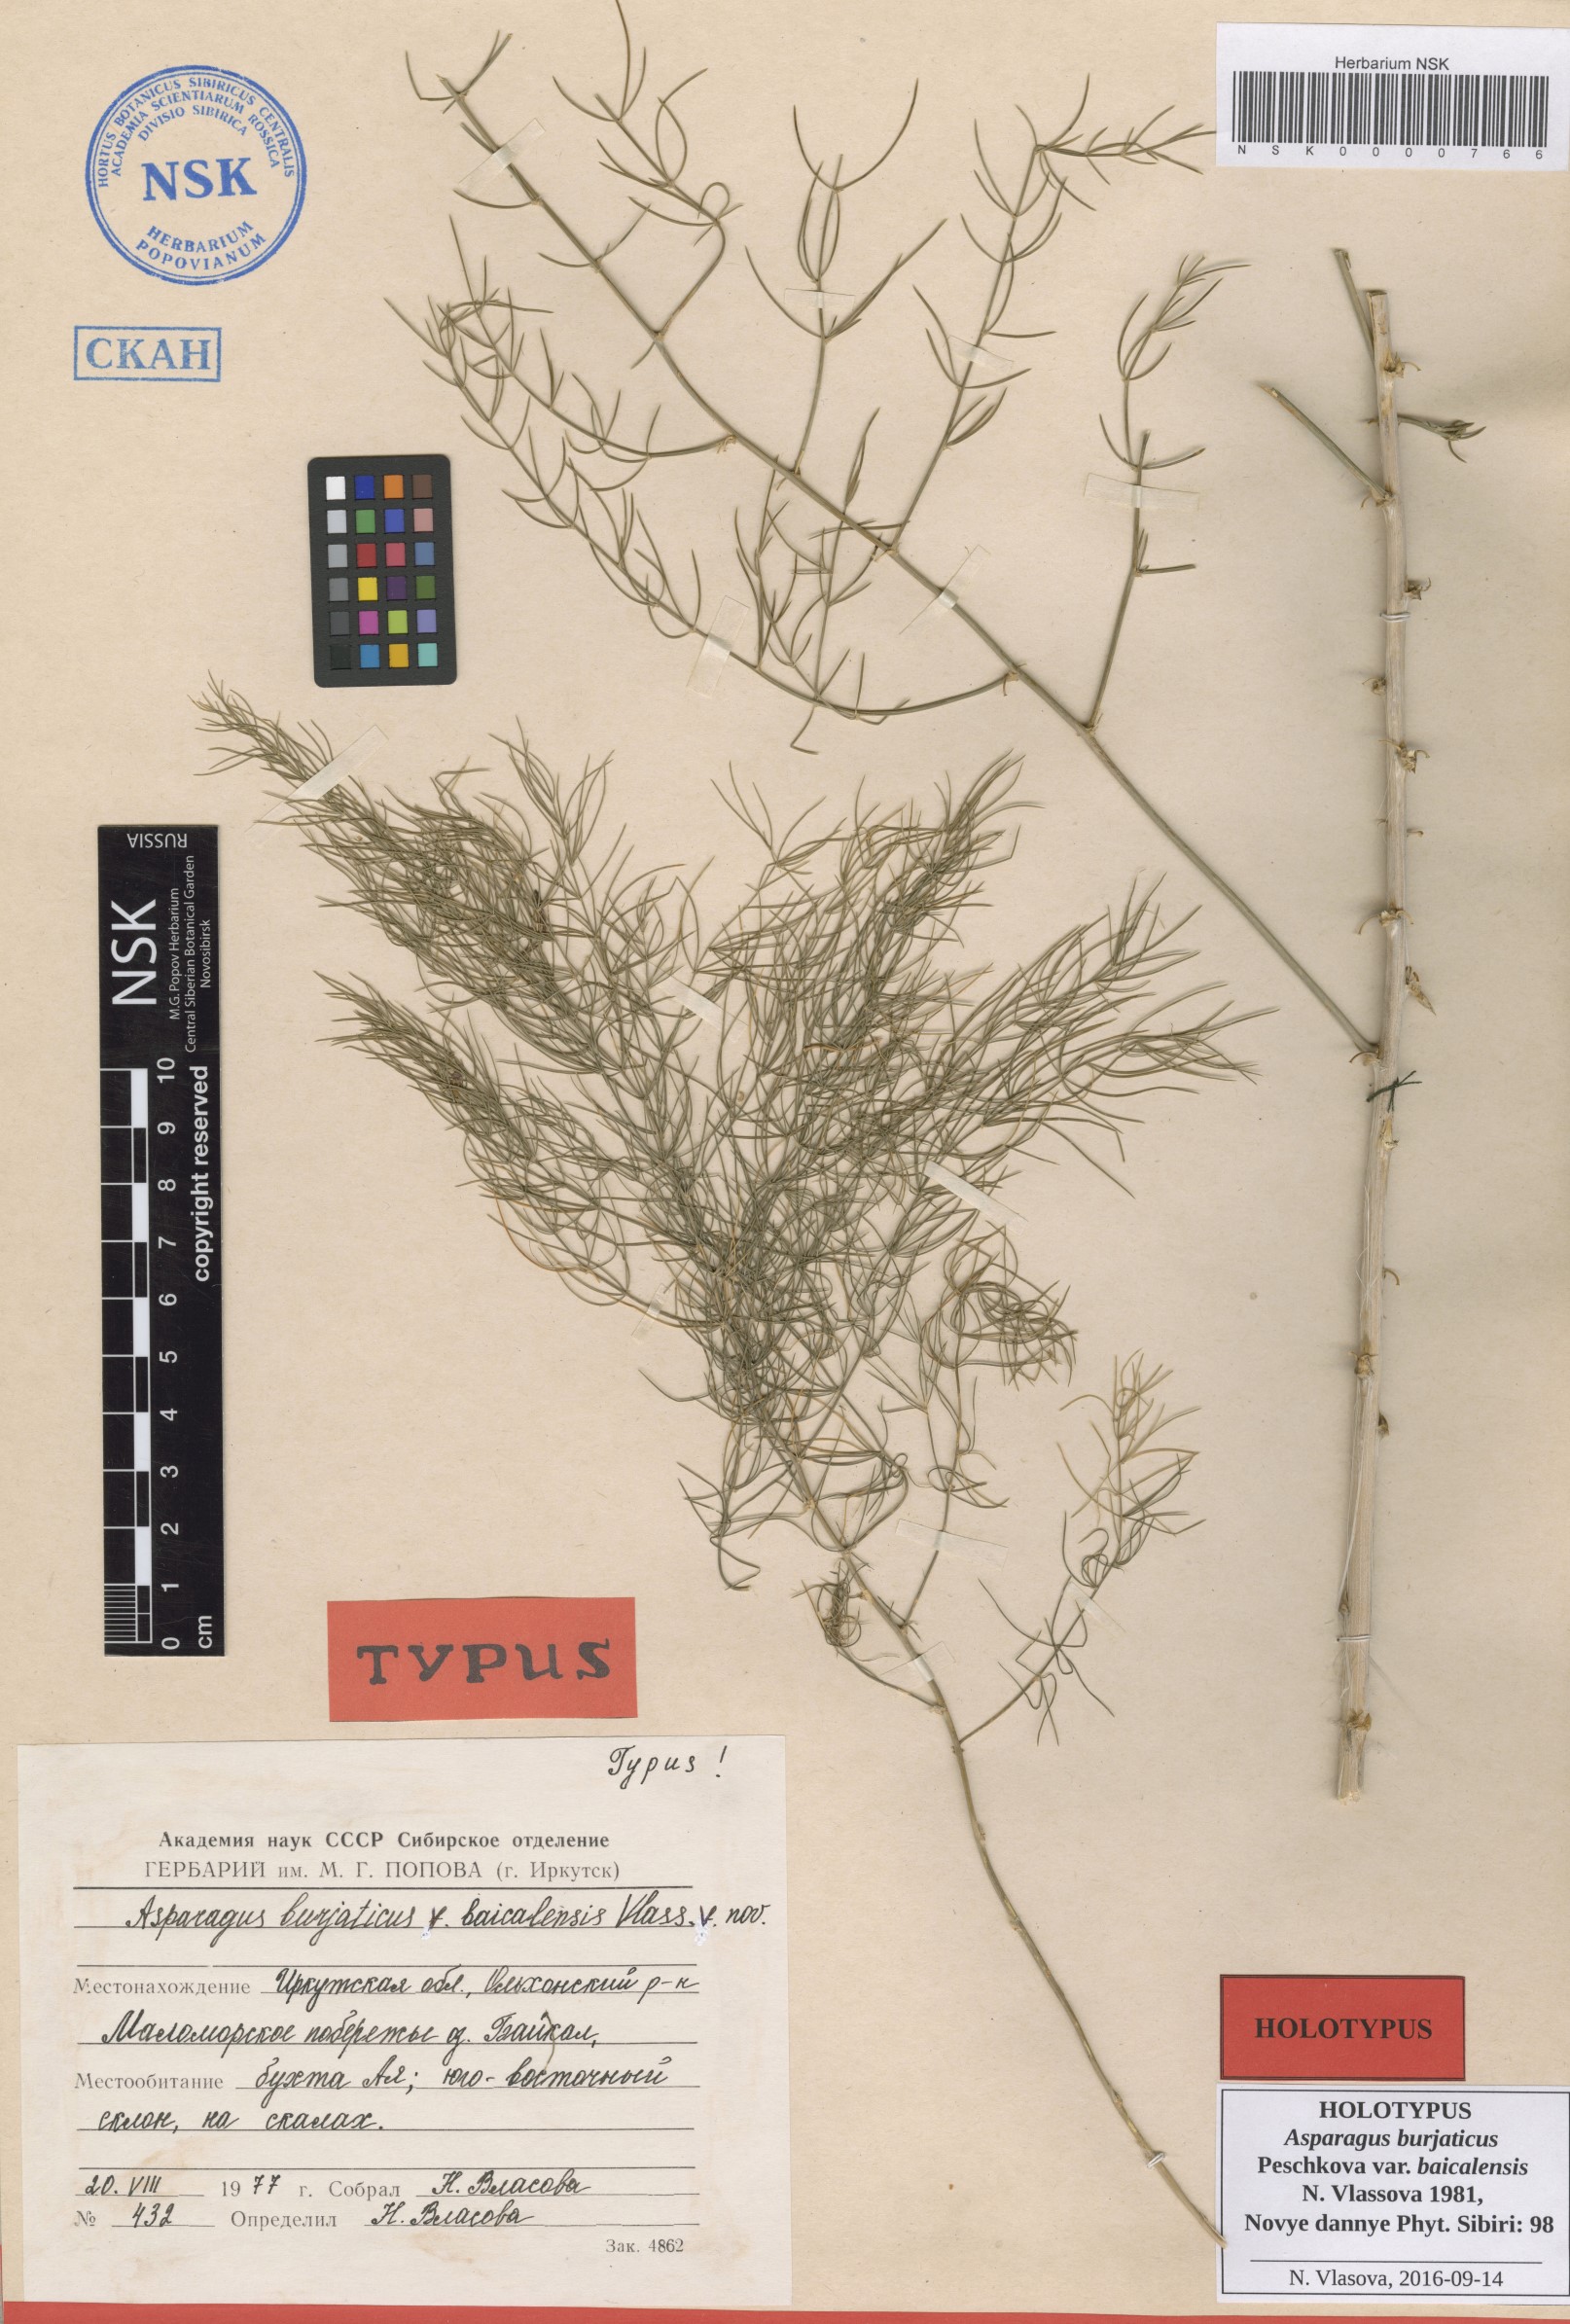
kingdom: Plantae
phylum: Tracheophyta
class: Liliopsida
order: Asparagales
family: Asparagaceae
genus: Asparagus
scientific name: Asparagus burjaticus
